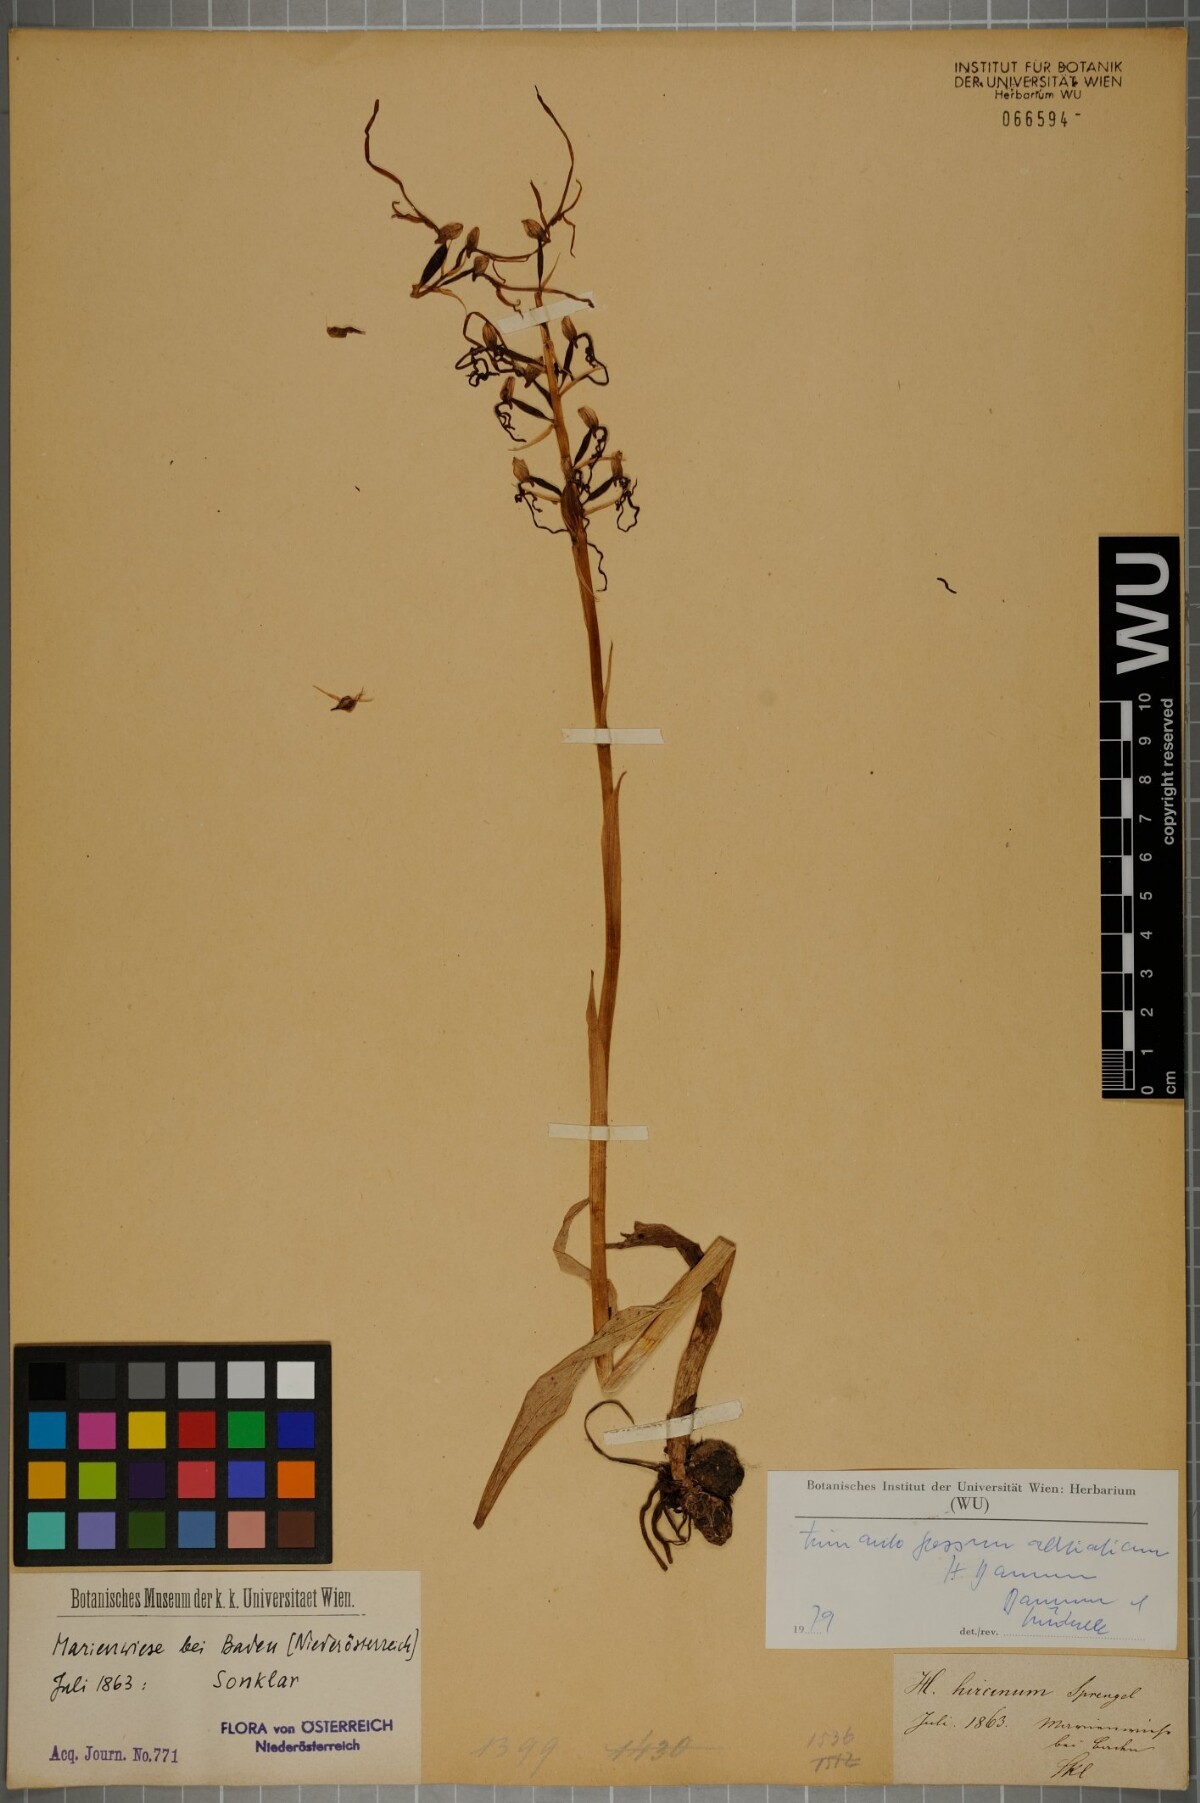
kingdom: Plantae
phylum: Tracheophyta
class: Liliopsida
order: Asparagales
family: Orchidaceae
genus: Himantoglossum
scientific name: Himantoglossum adriaticum
